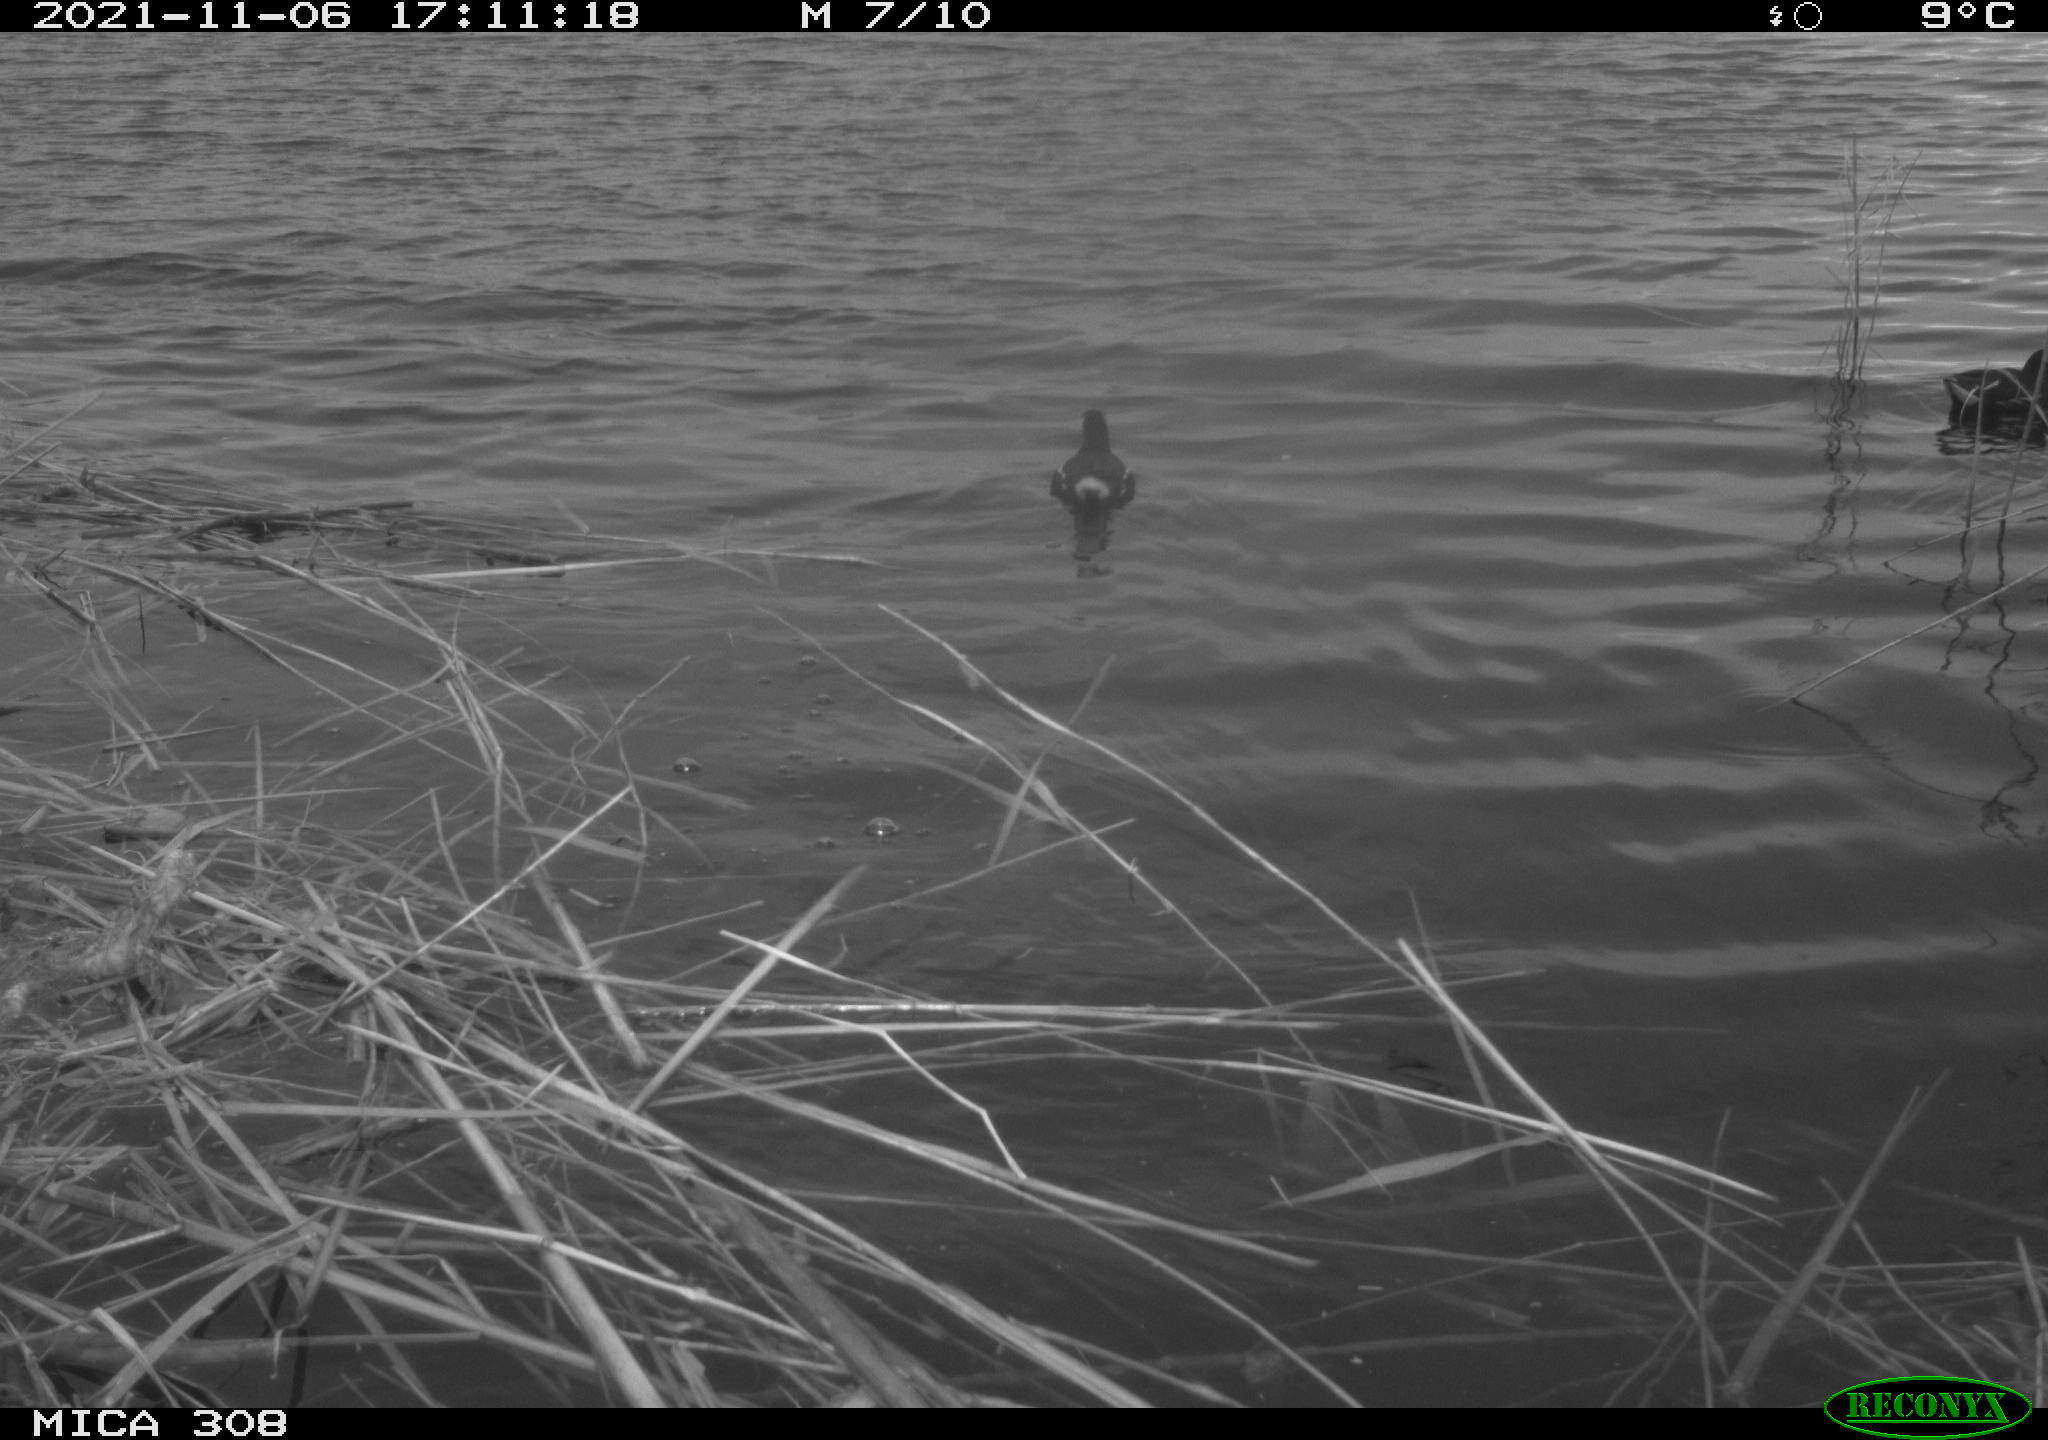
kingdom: Animalia
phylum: Chordata
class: Aves
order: Gruiformes
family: Rallidae
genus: Gallinula
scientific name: Gallinula chloropus
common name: Common moorhen
